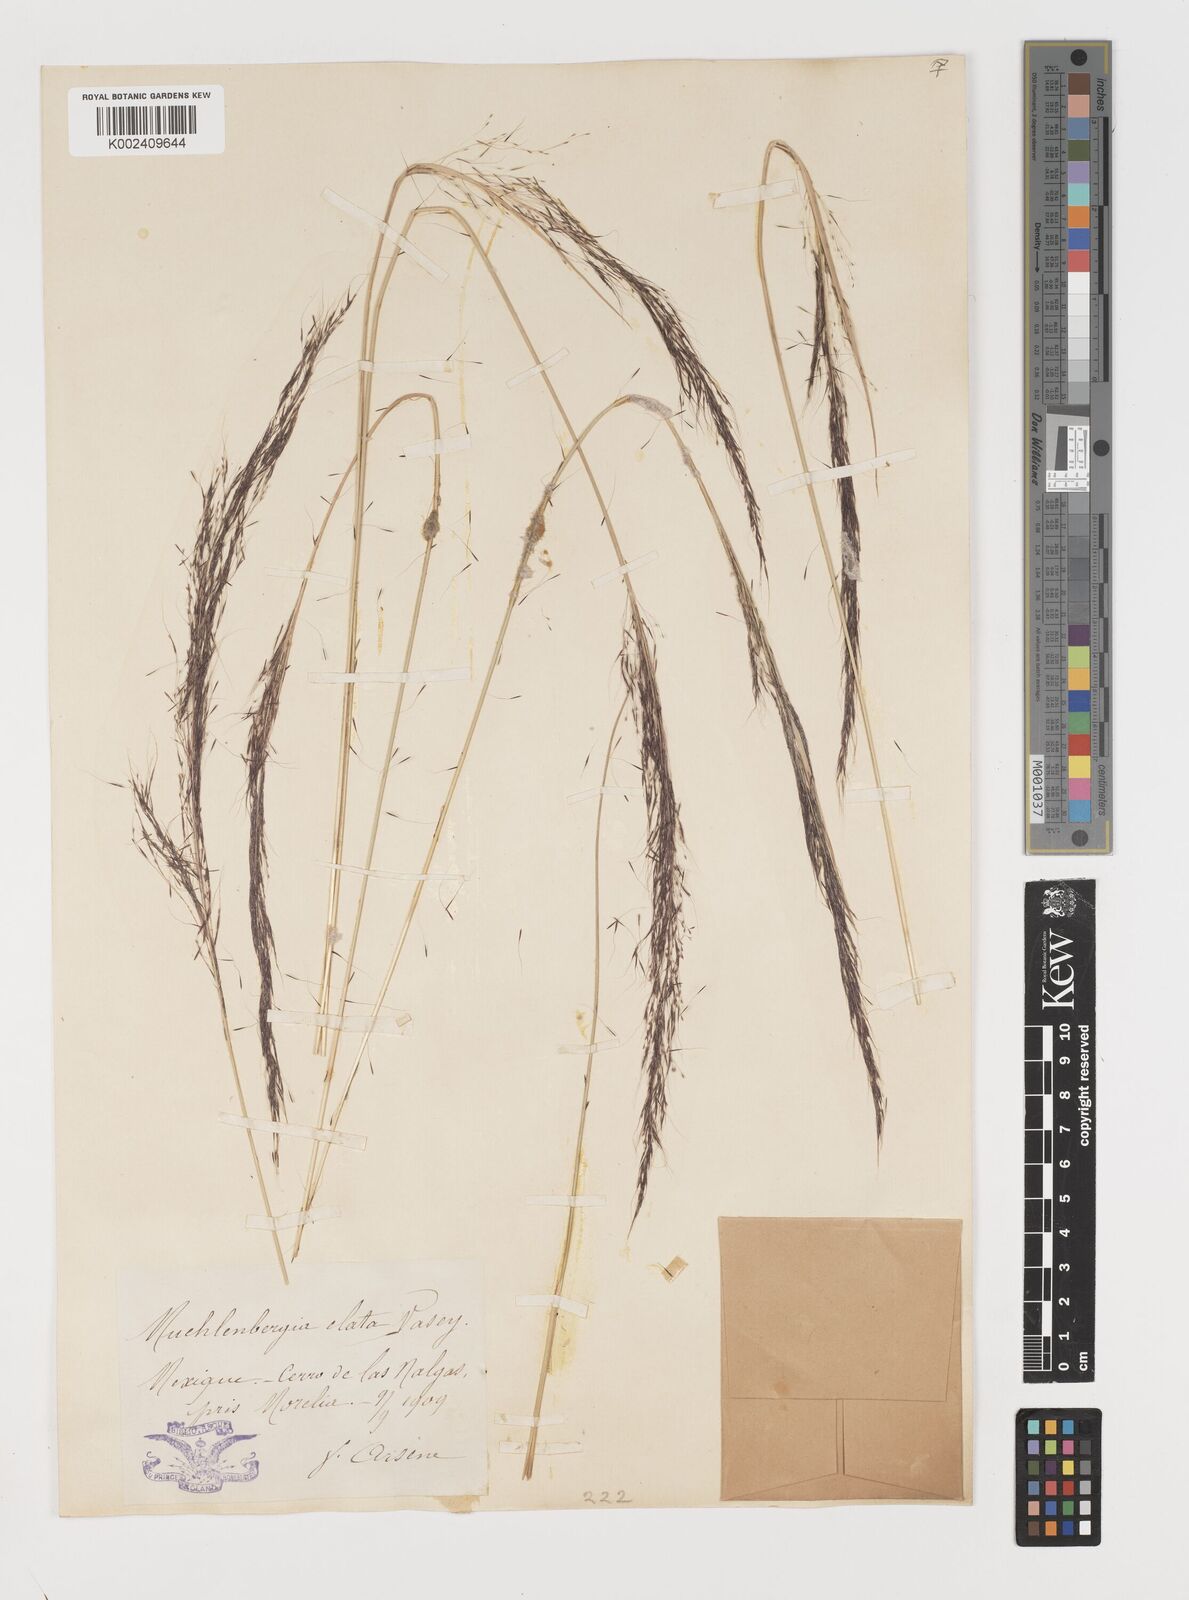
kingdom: Plantae
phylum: Tracheophyta
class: Liliopsida
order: Poales
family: Poaceae
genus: Muhlenbergia
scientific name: Muhlenbergia stricta
